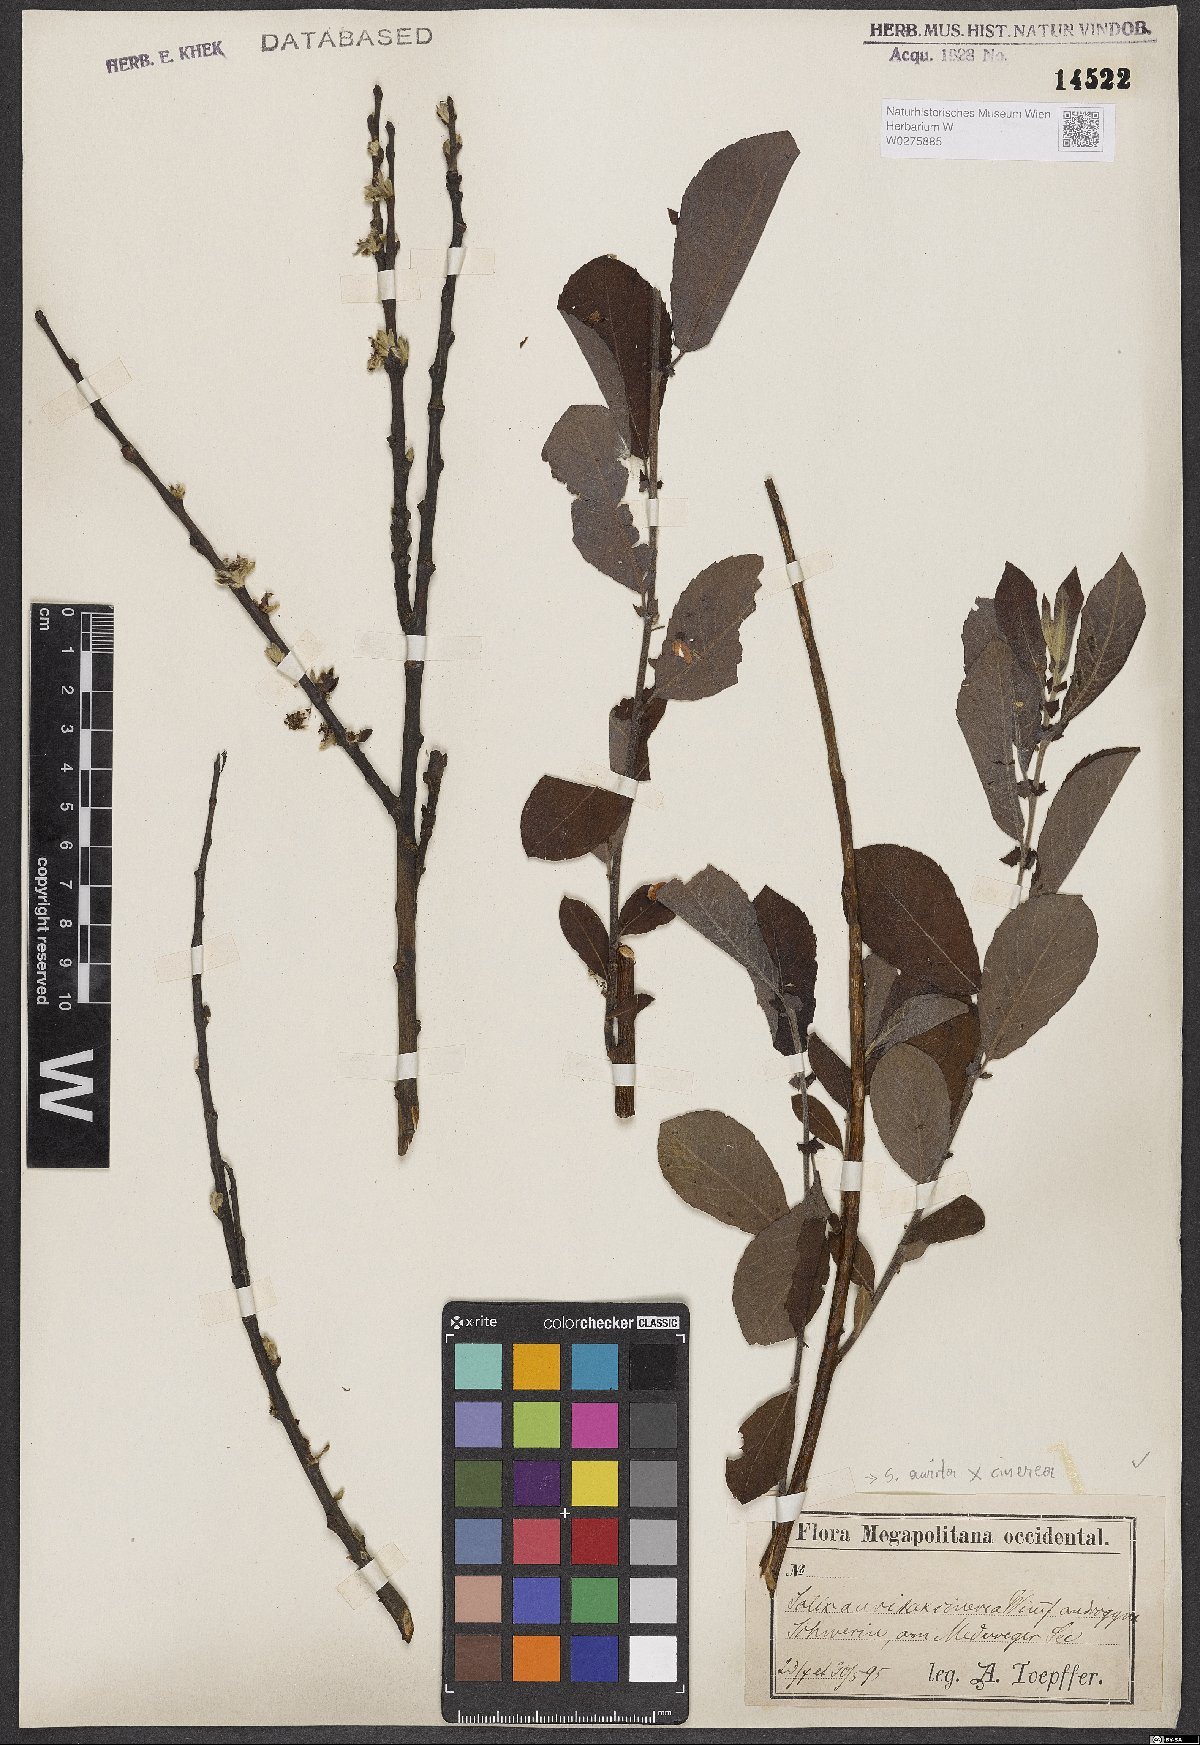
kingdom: Plantae
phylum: Tracheophyta
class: Magnoliopsida
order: Malpighiales
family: Salicaceae
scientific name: Salicaceae
